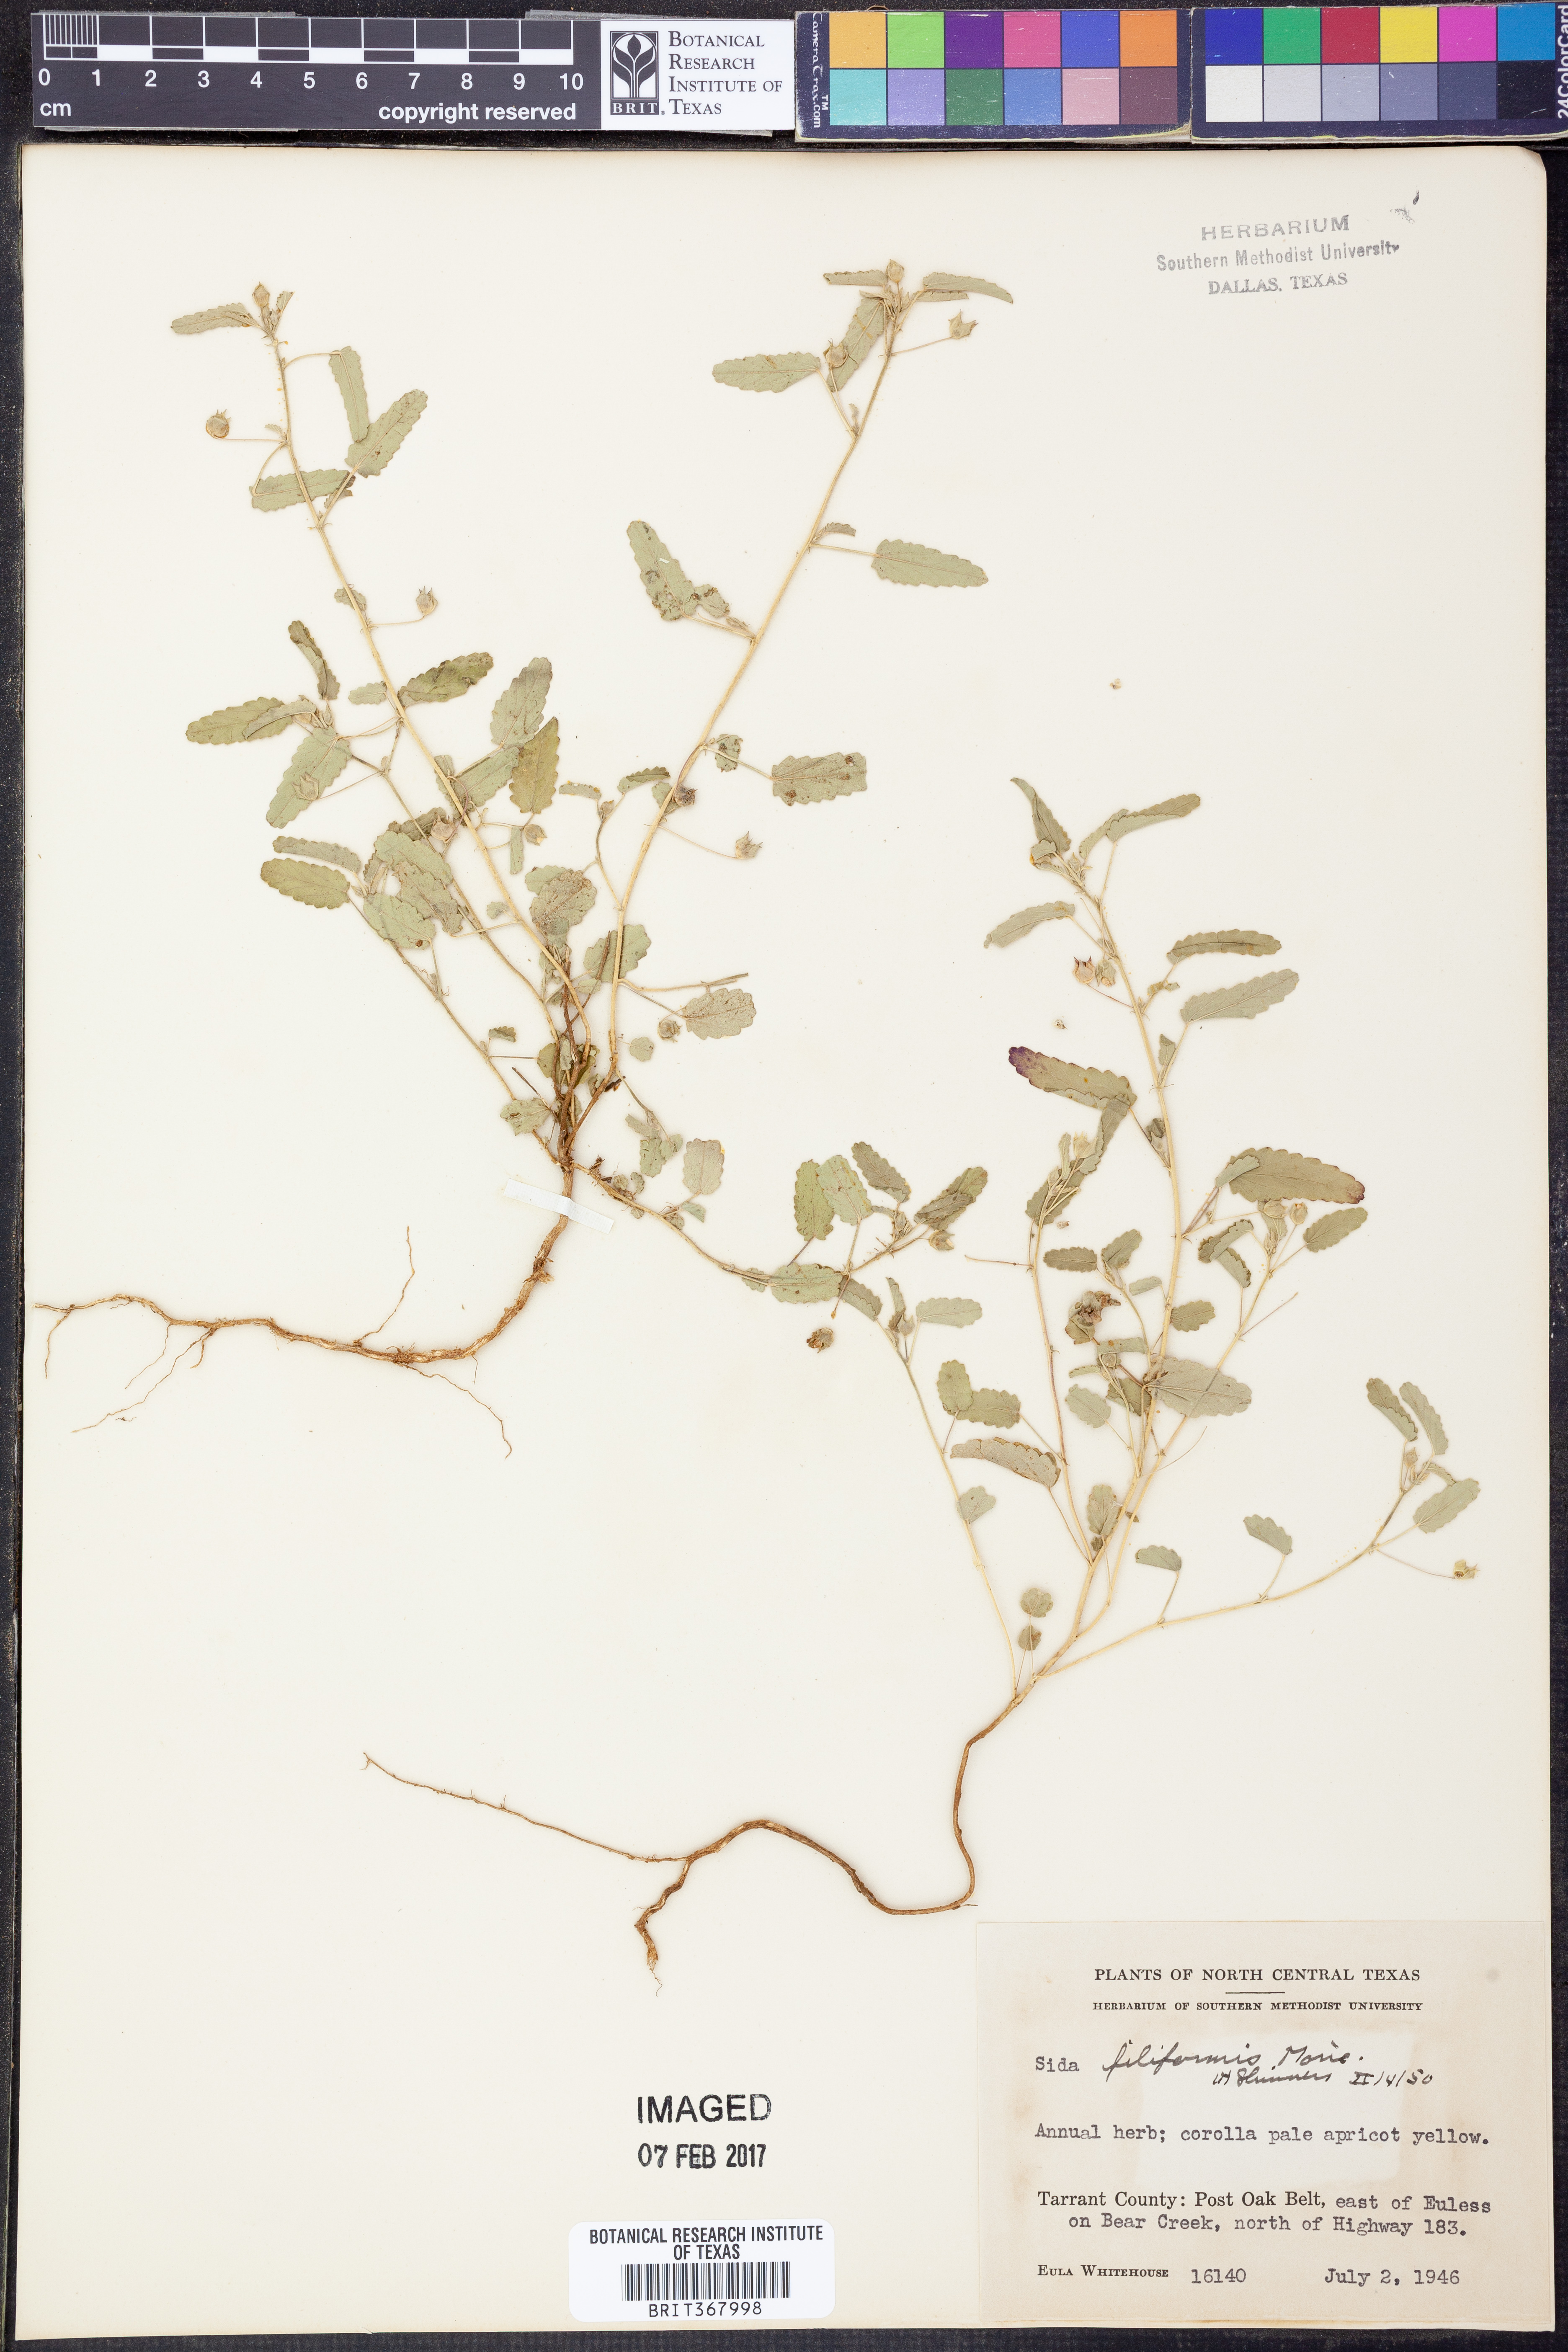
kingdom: Plantae
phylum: Tracheophyta
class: Magnoliopsida
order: Malvales
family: Malvaceae
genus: Sida
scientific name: Sida abutilifolia
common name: Spreading fanpetals
